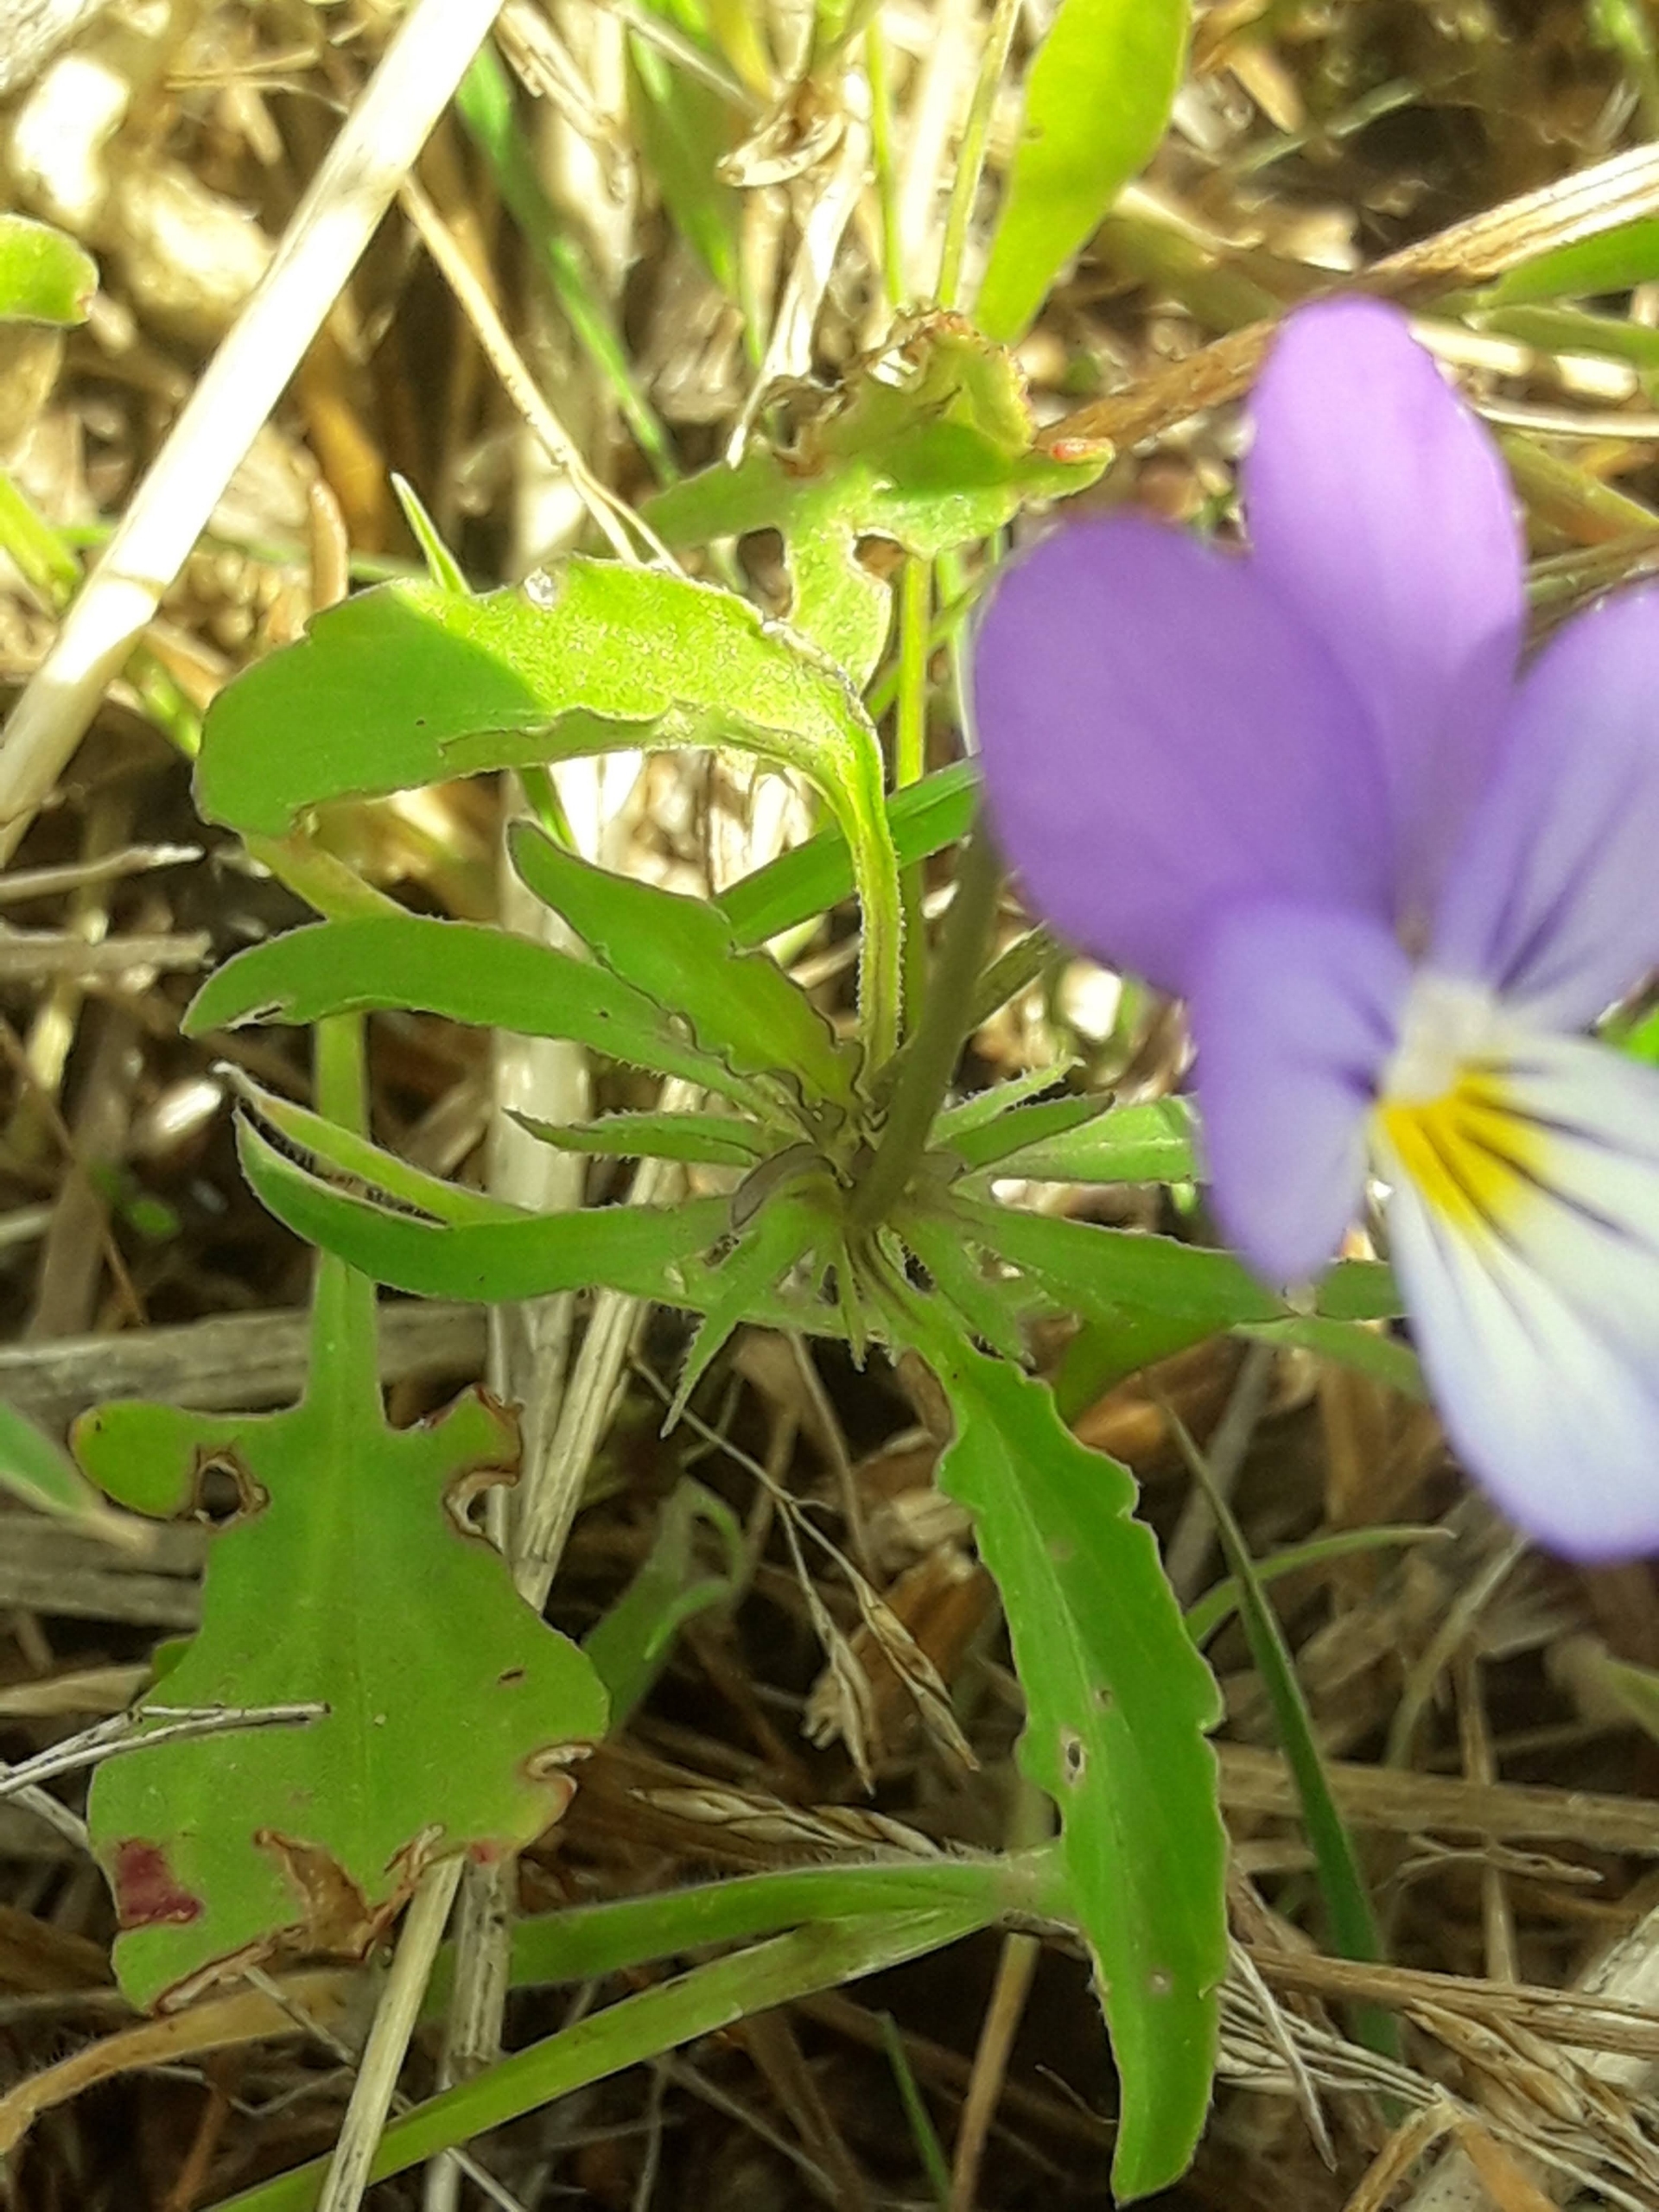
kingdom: Plantae
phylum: Tracheophyta
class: Magnoliopsida
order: Malpighiales
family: Violaceae
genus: Viola
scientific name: Viola tricolor
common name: Stedmoderblomst
